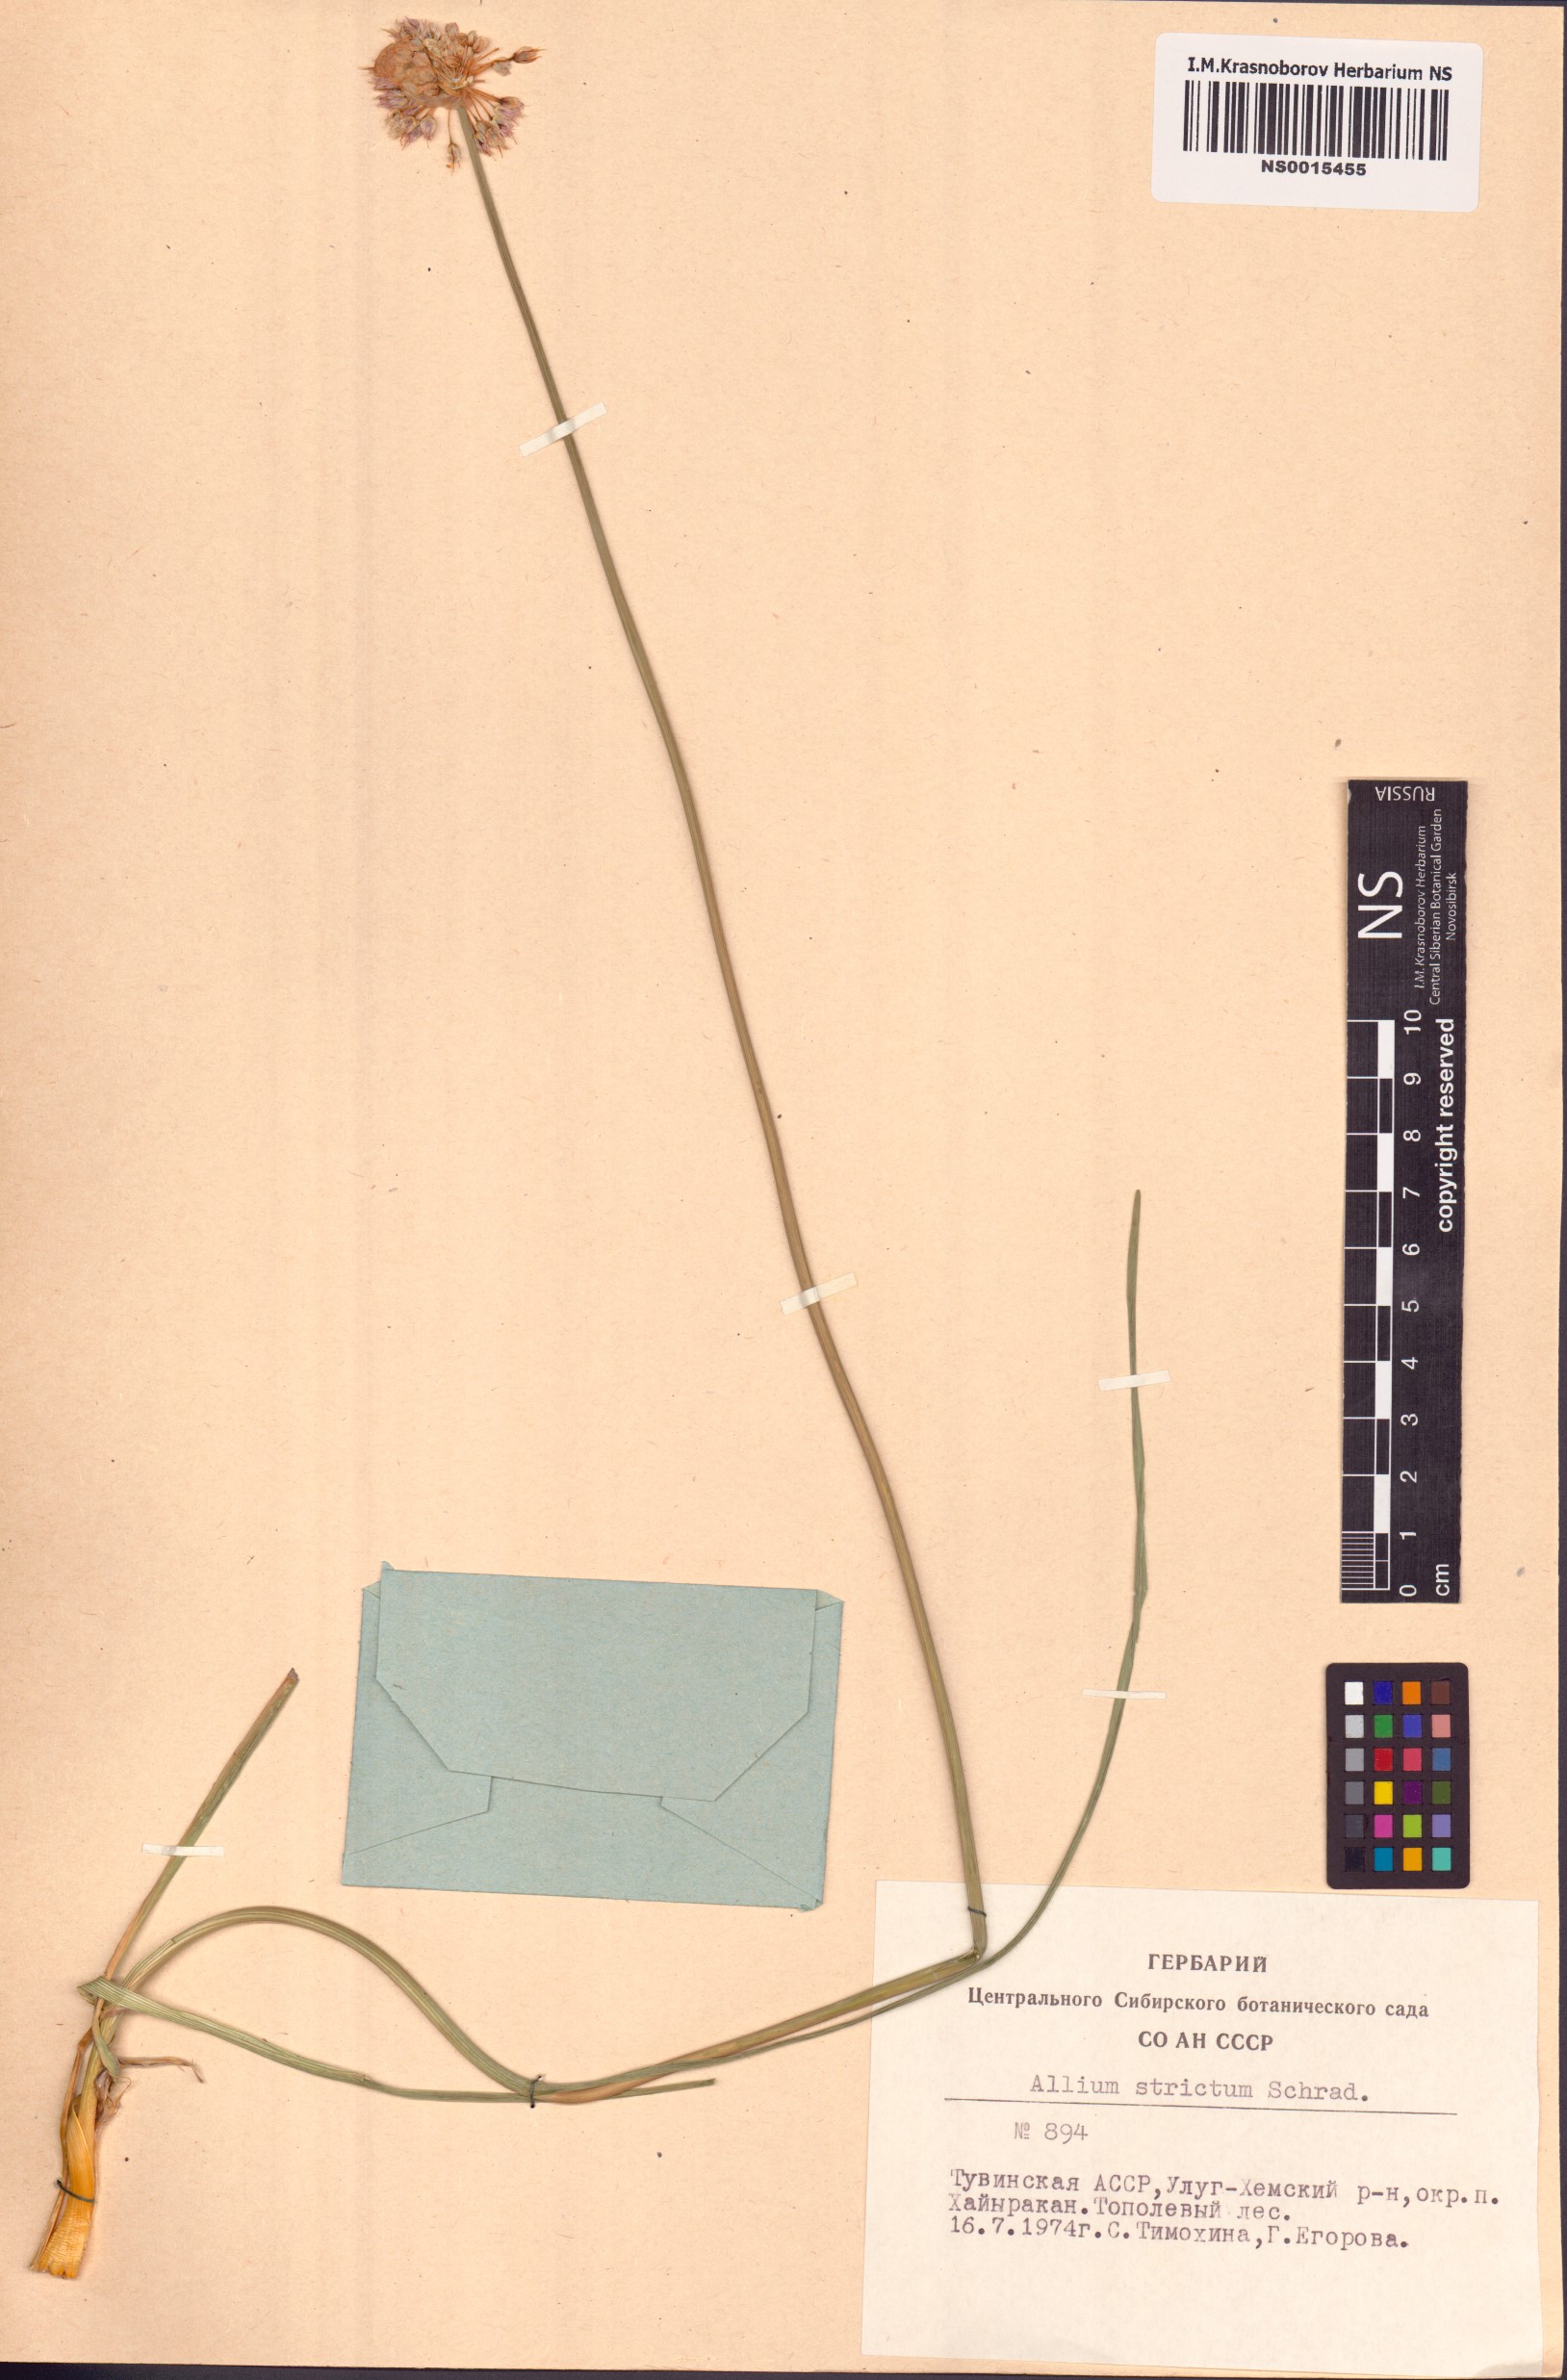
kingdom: Plantae
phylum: Tracheophyta
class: Liliopsida
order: Asparagales
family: Amaryllidaceae
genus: Allium
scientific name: Allium strictum
